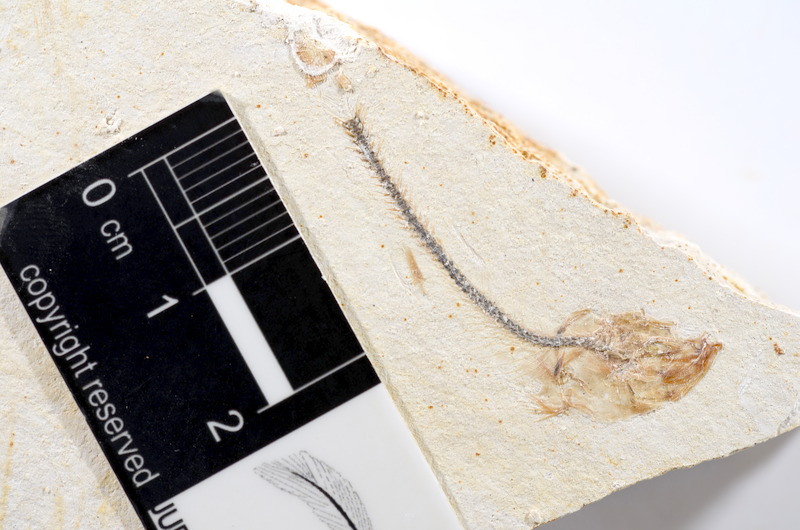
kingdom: Animalia
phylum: Chordata
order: Salmoniformes
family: Orthogonikleithridae
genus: Orthogonikleithrus
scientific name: Orthogonikleithrus hoelli
